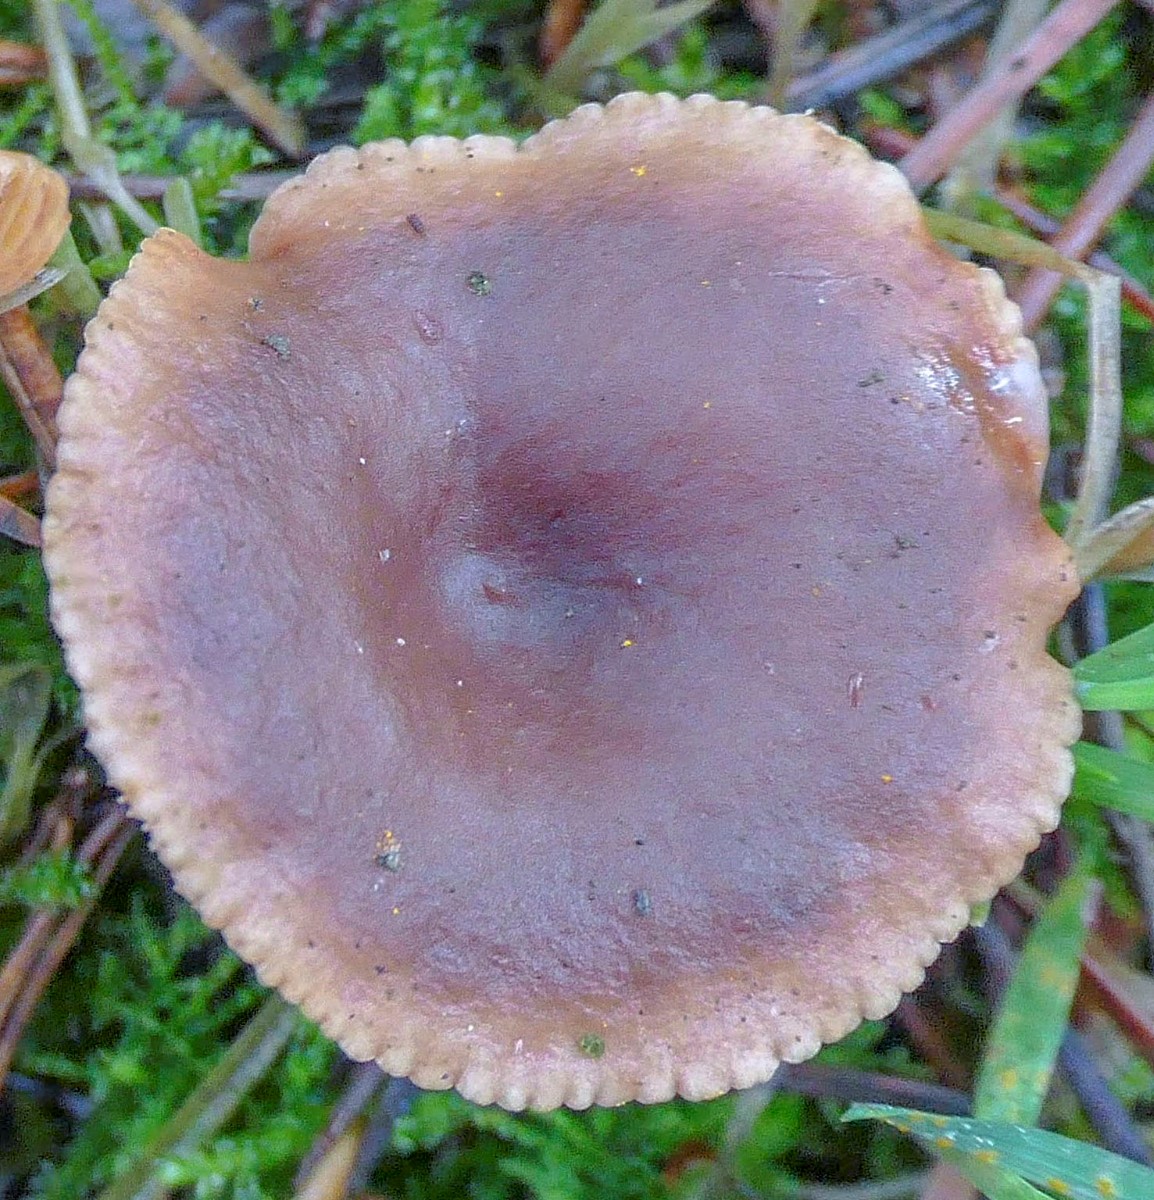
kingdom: Fungi
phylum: Basidiomycota
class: Agaricomycetes
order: Russulales
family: Russulaceae
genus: Lactarius
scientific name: Lactarius hepaticus
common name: leverbrun mælkehat
